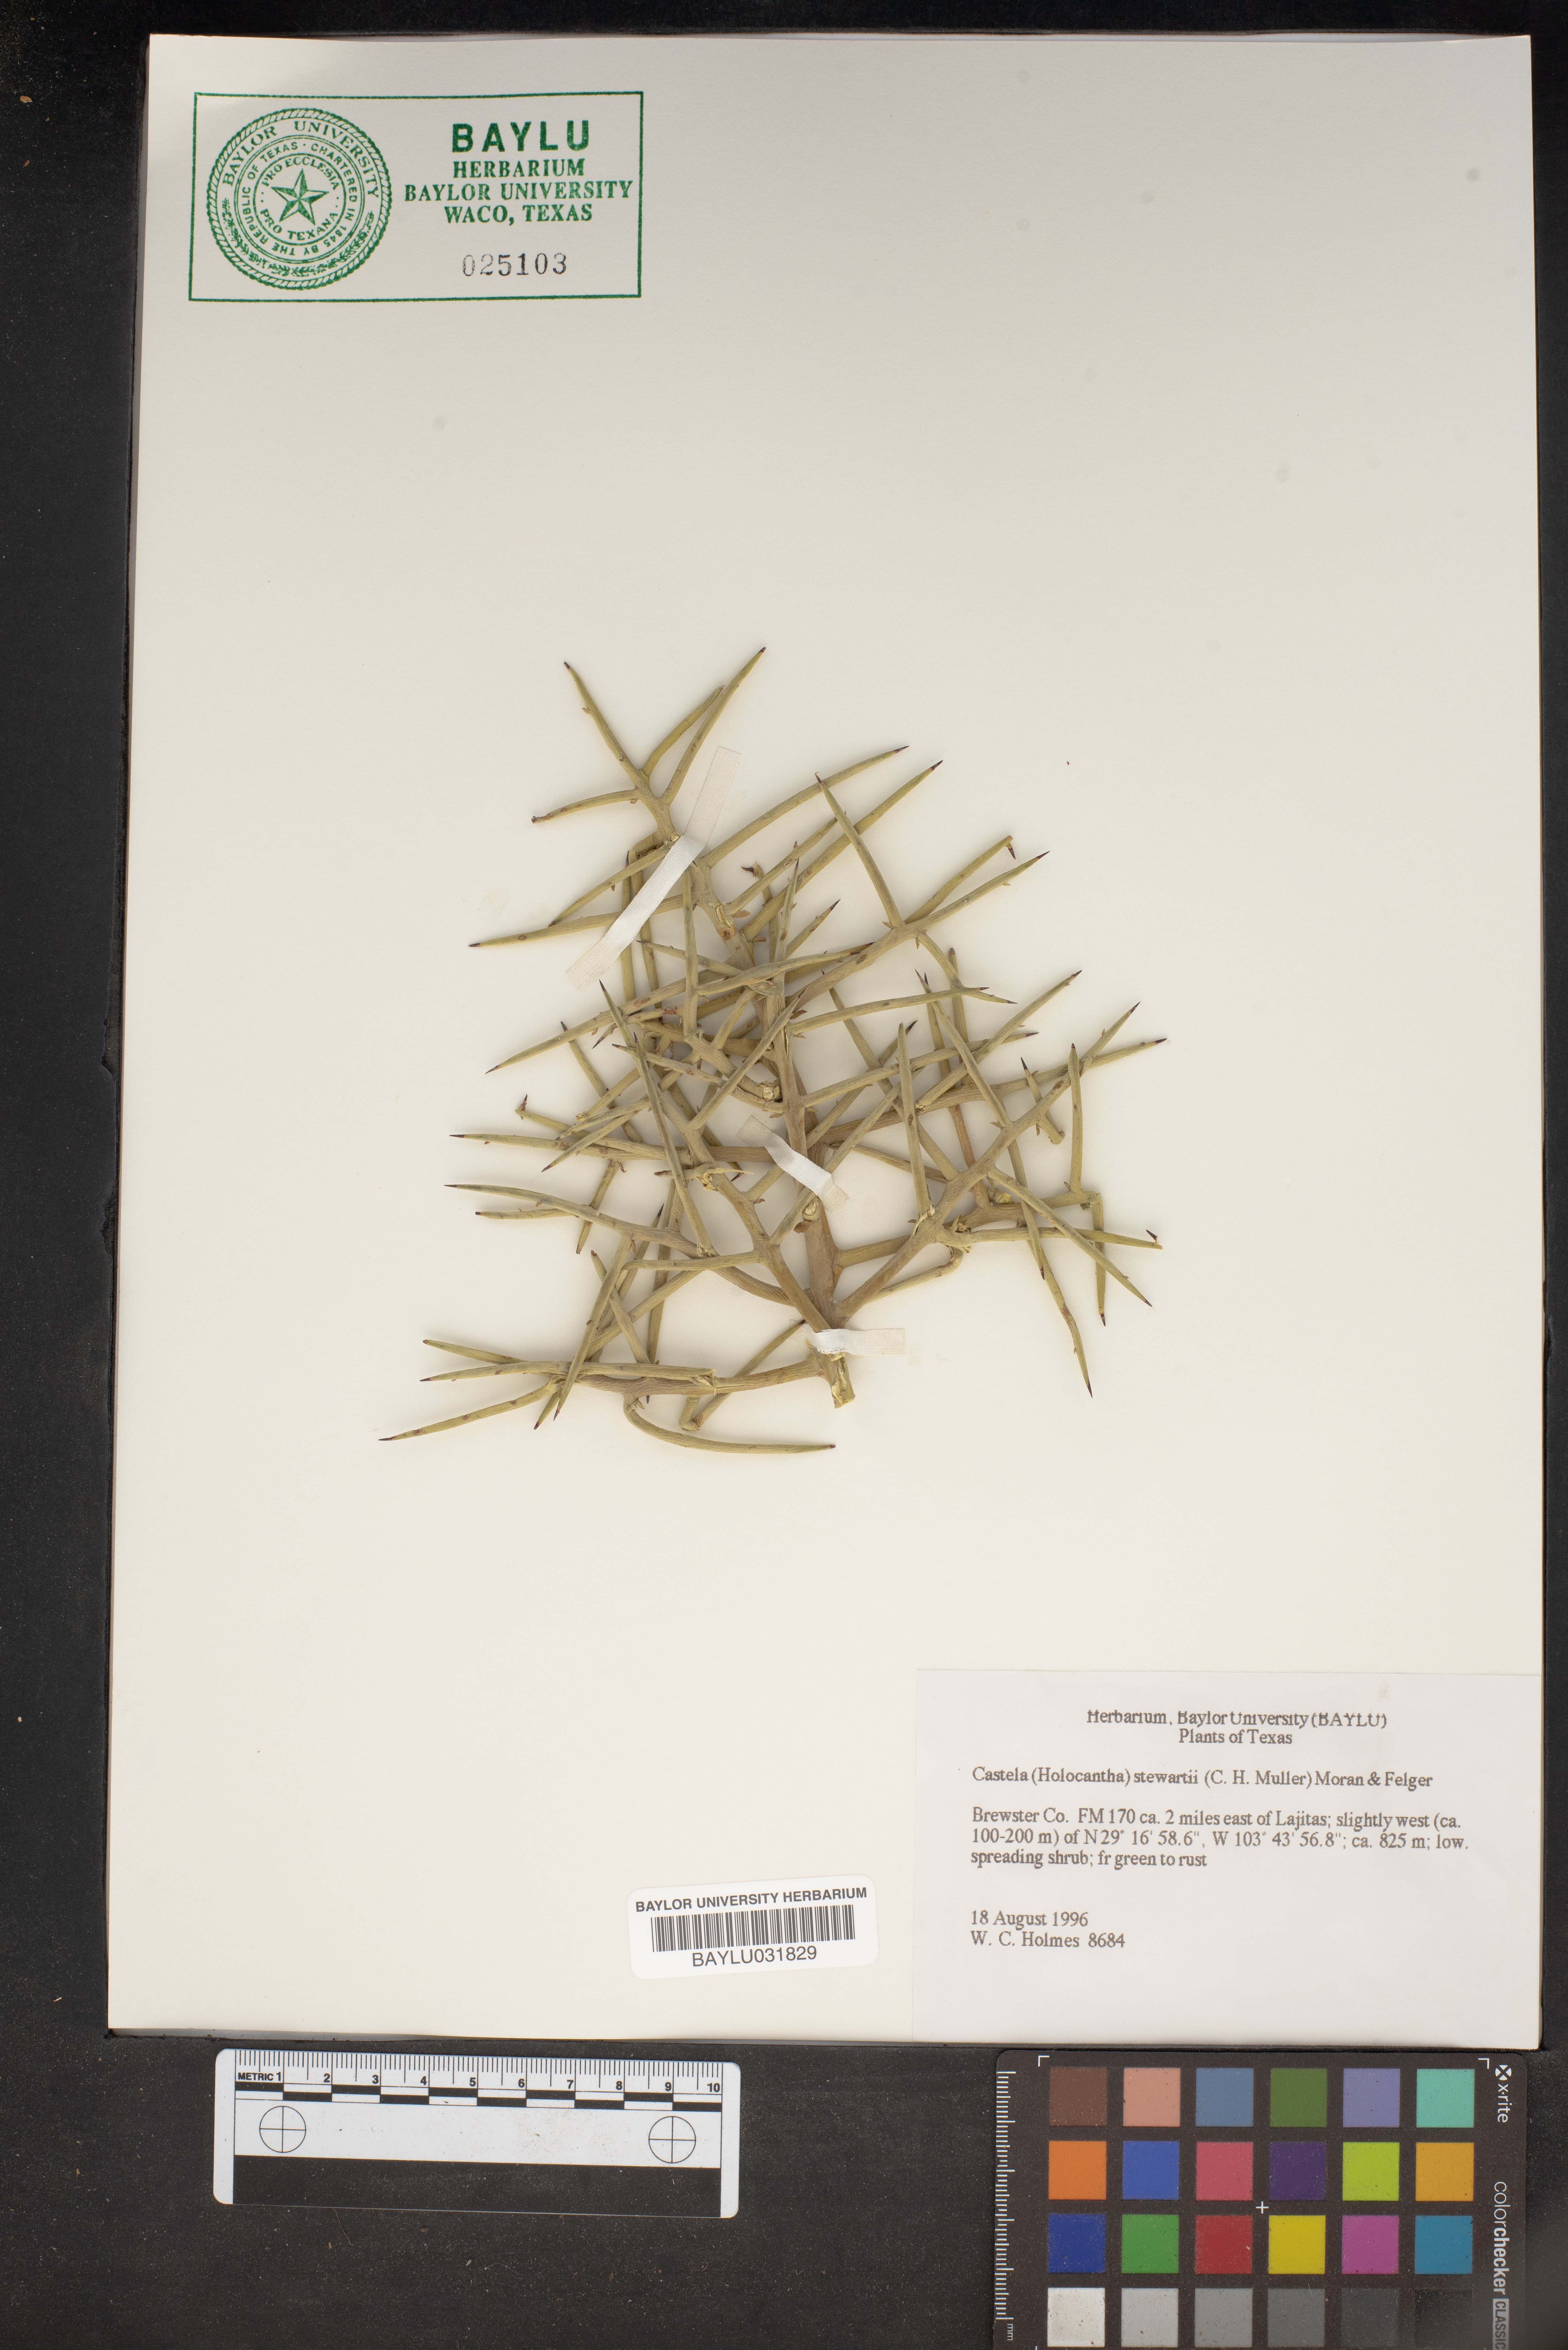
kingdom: Plantae
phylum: Tracheophyta
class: Magnoliopsida
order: Sapindales
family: Simaroubaceae
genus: Holacantha
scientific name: Holacantha stewartii
